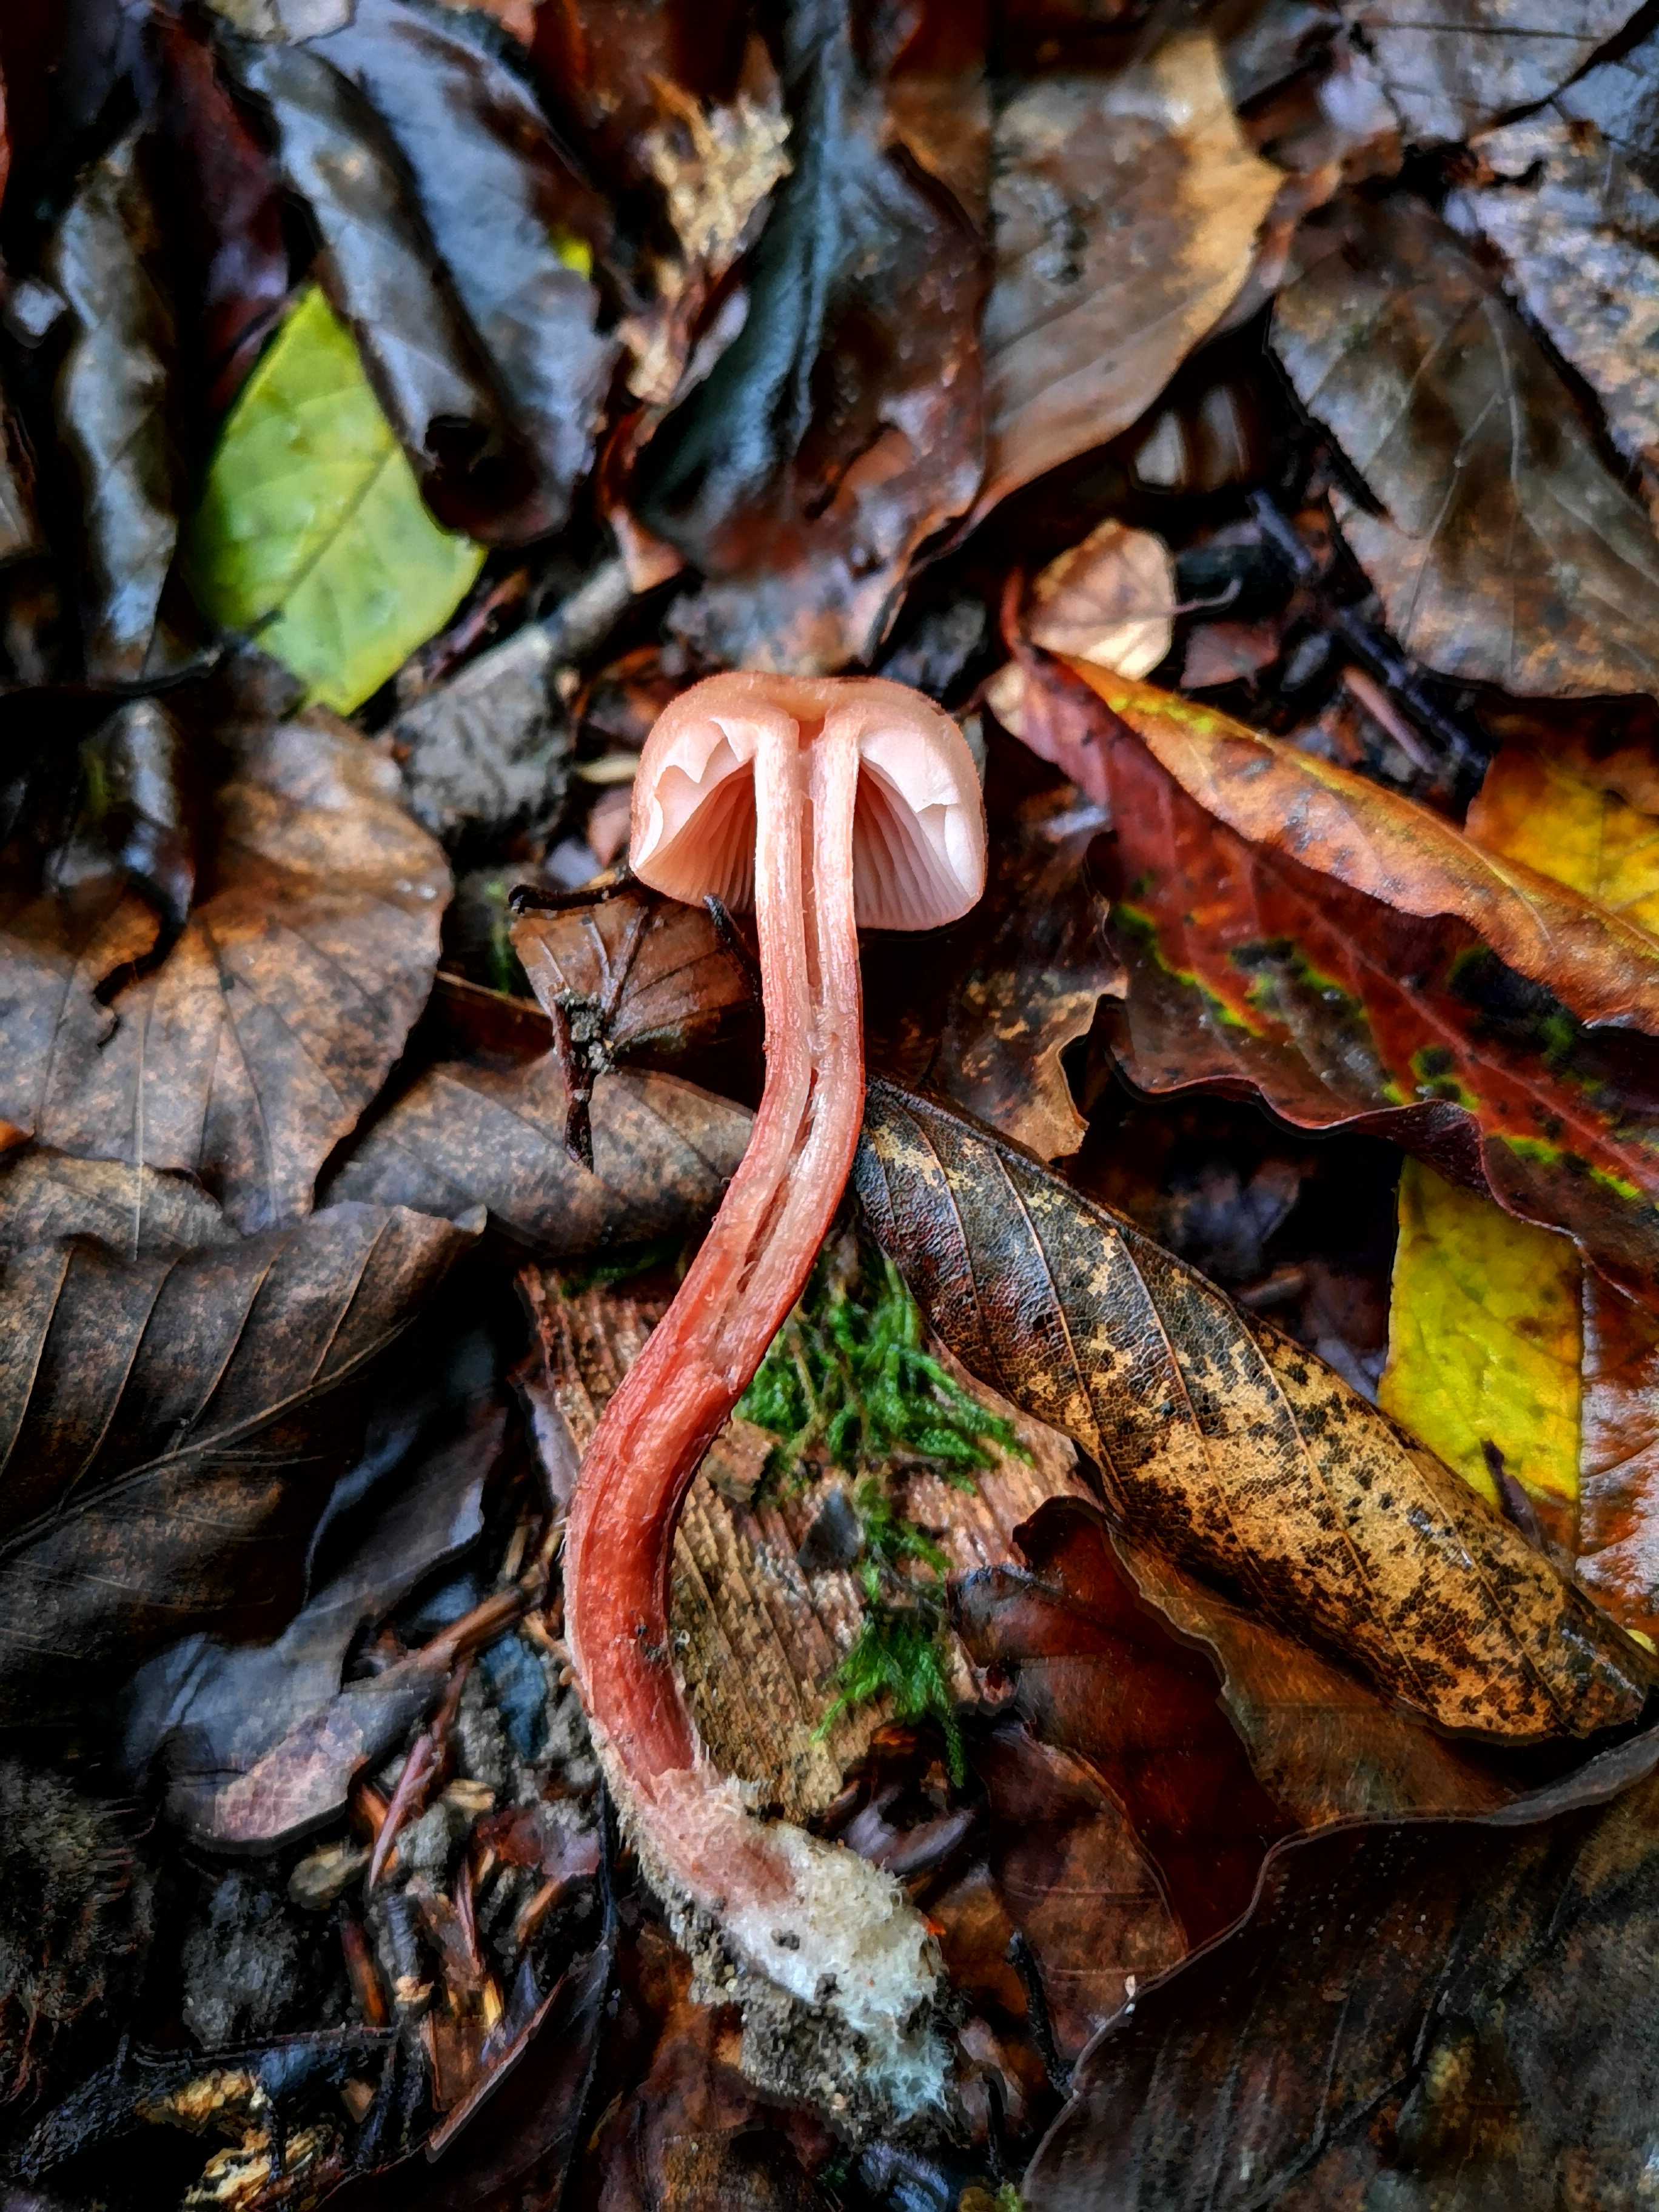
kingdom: Fungi
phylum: Basidiomycota
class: Agaricomycetes
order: Agaricales
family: Hydnangiaceae
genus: Laccaria
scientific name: Laccaria laccata
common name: rød ametysthat
